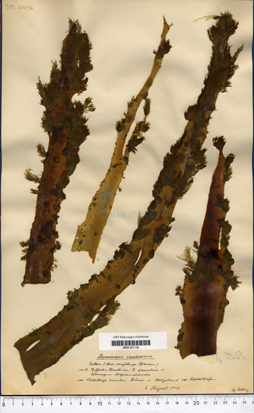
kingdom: Chromista
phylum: Ochrophyta
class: Phaeophyceae
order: Laminariales
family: Laminariaceae
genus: Saccharina
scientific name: Saccharina latissima
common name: Poor man's weather glass
